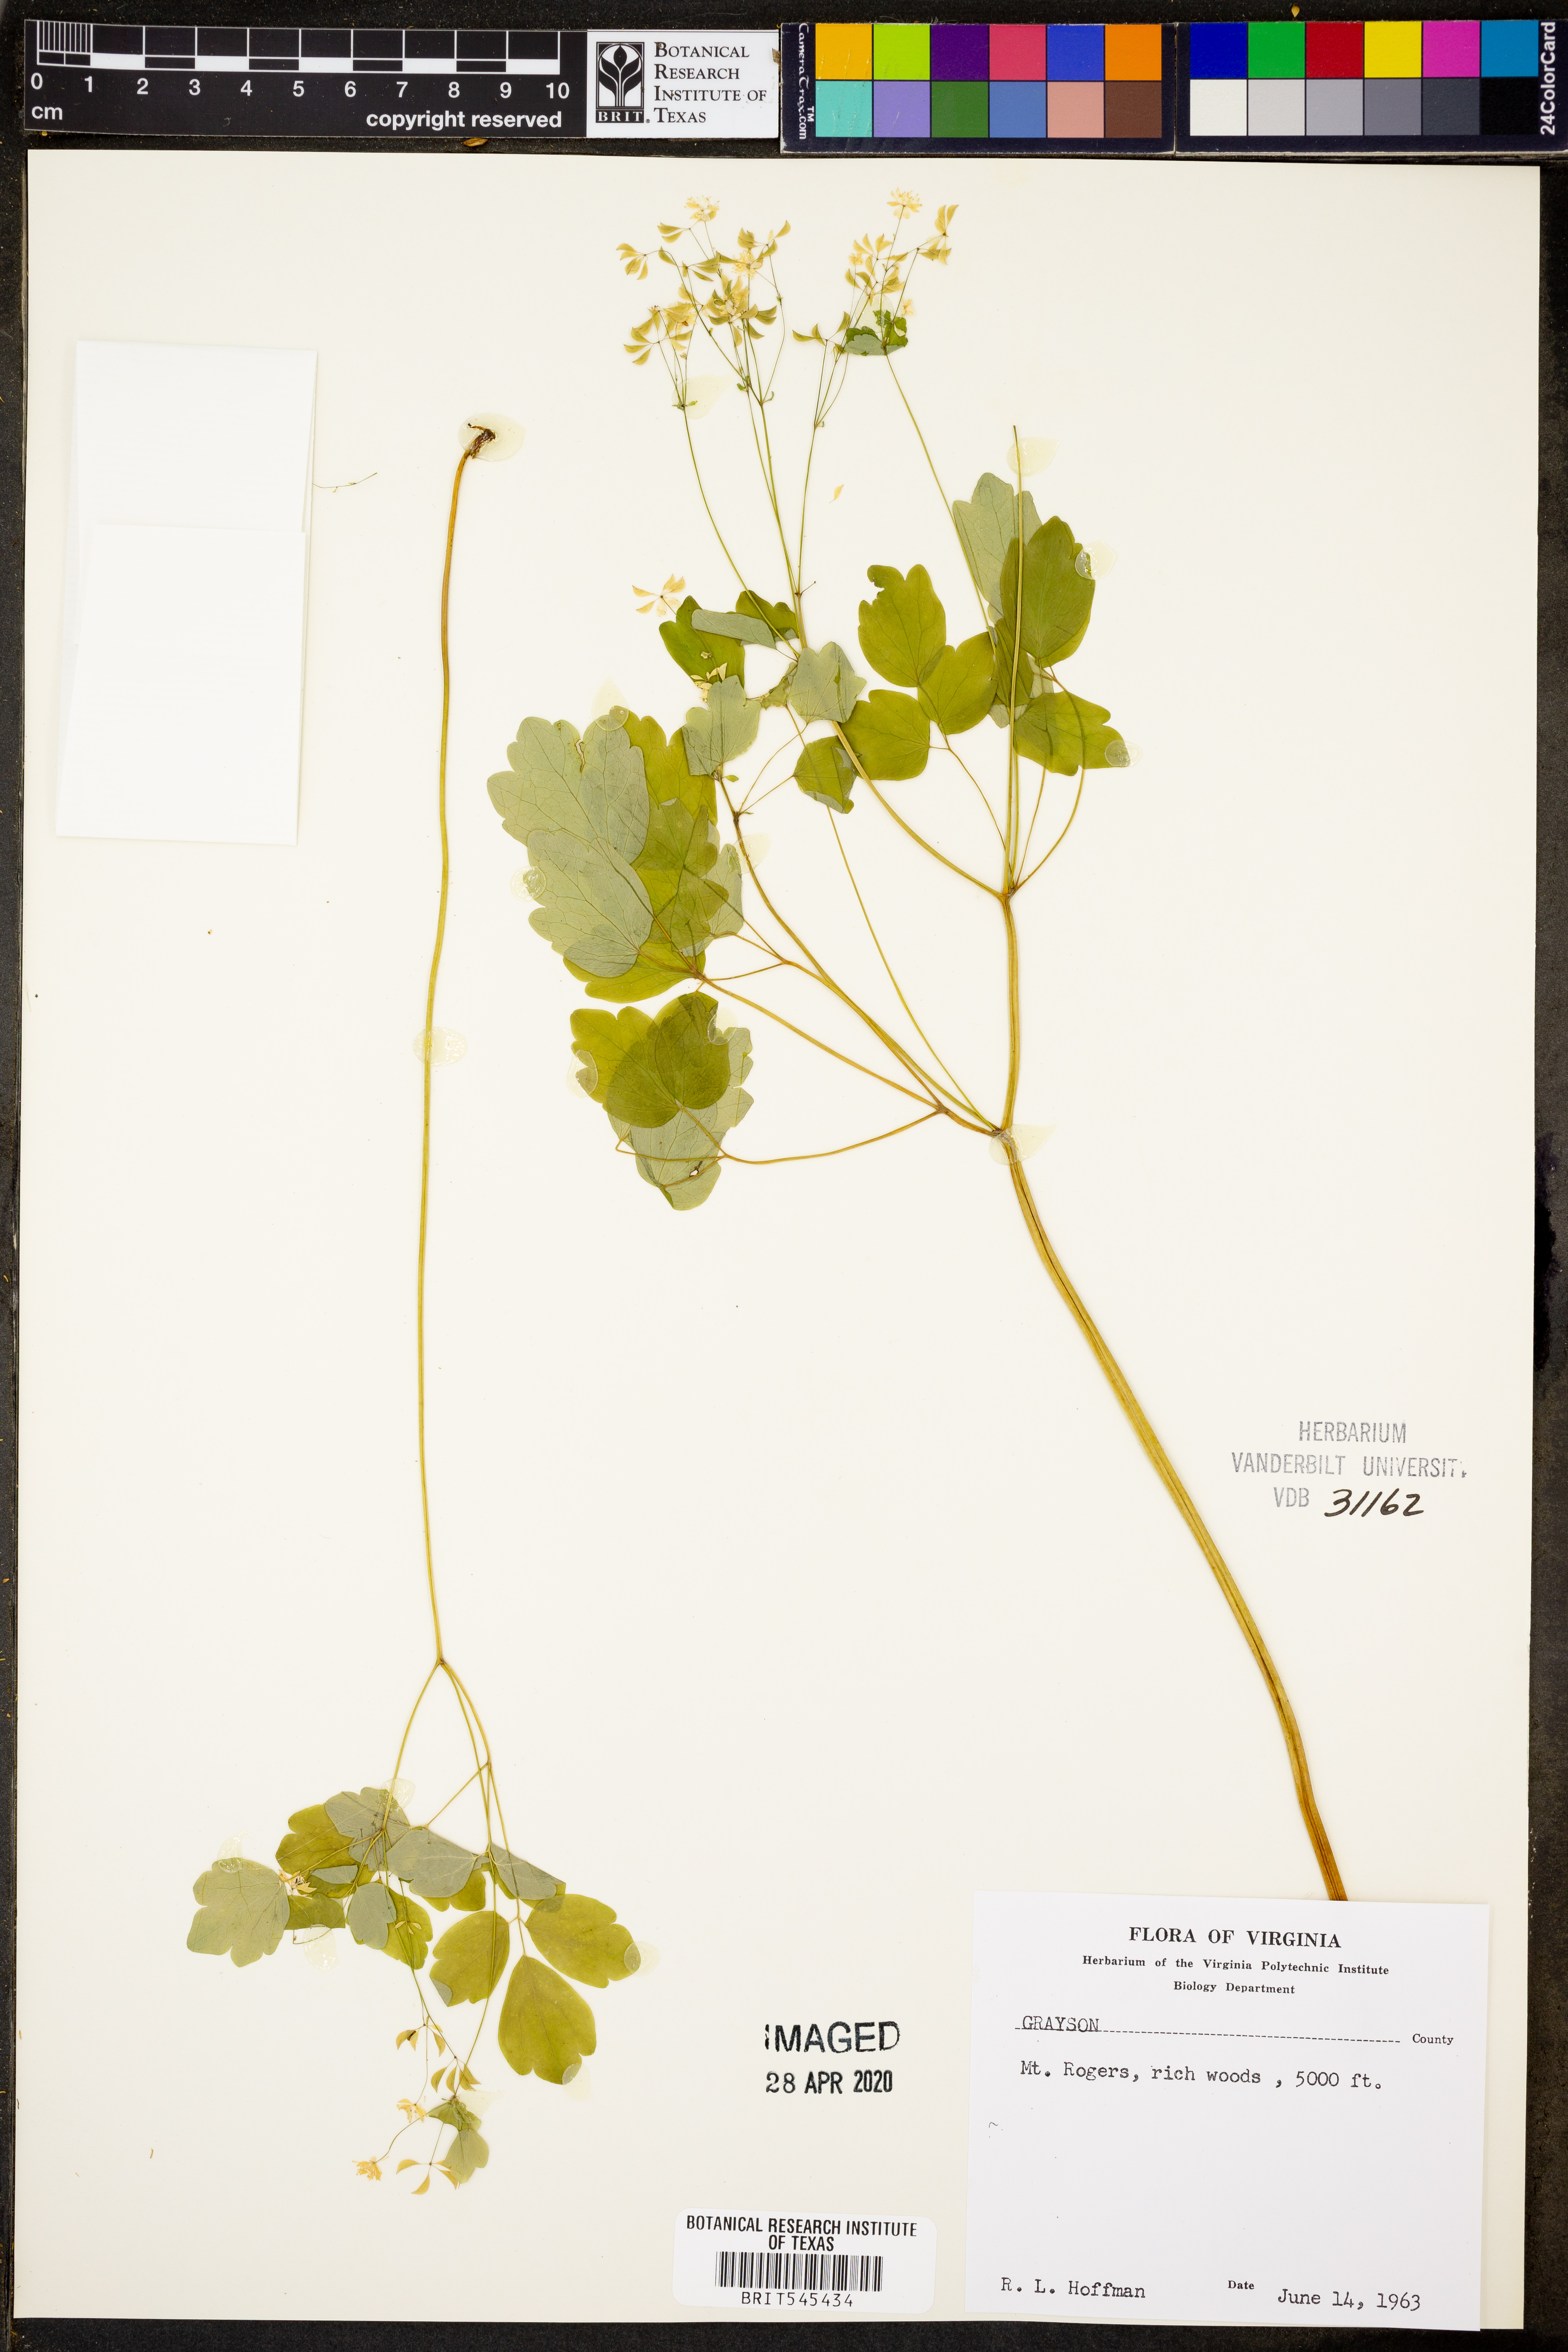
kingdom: Plantae
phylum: Tracheophyta
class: Magnoliopsida
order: Ranunculales
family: Ranunculaceae
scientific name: Ranunculaceae
